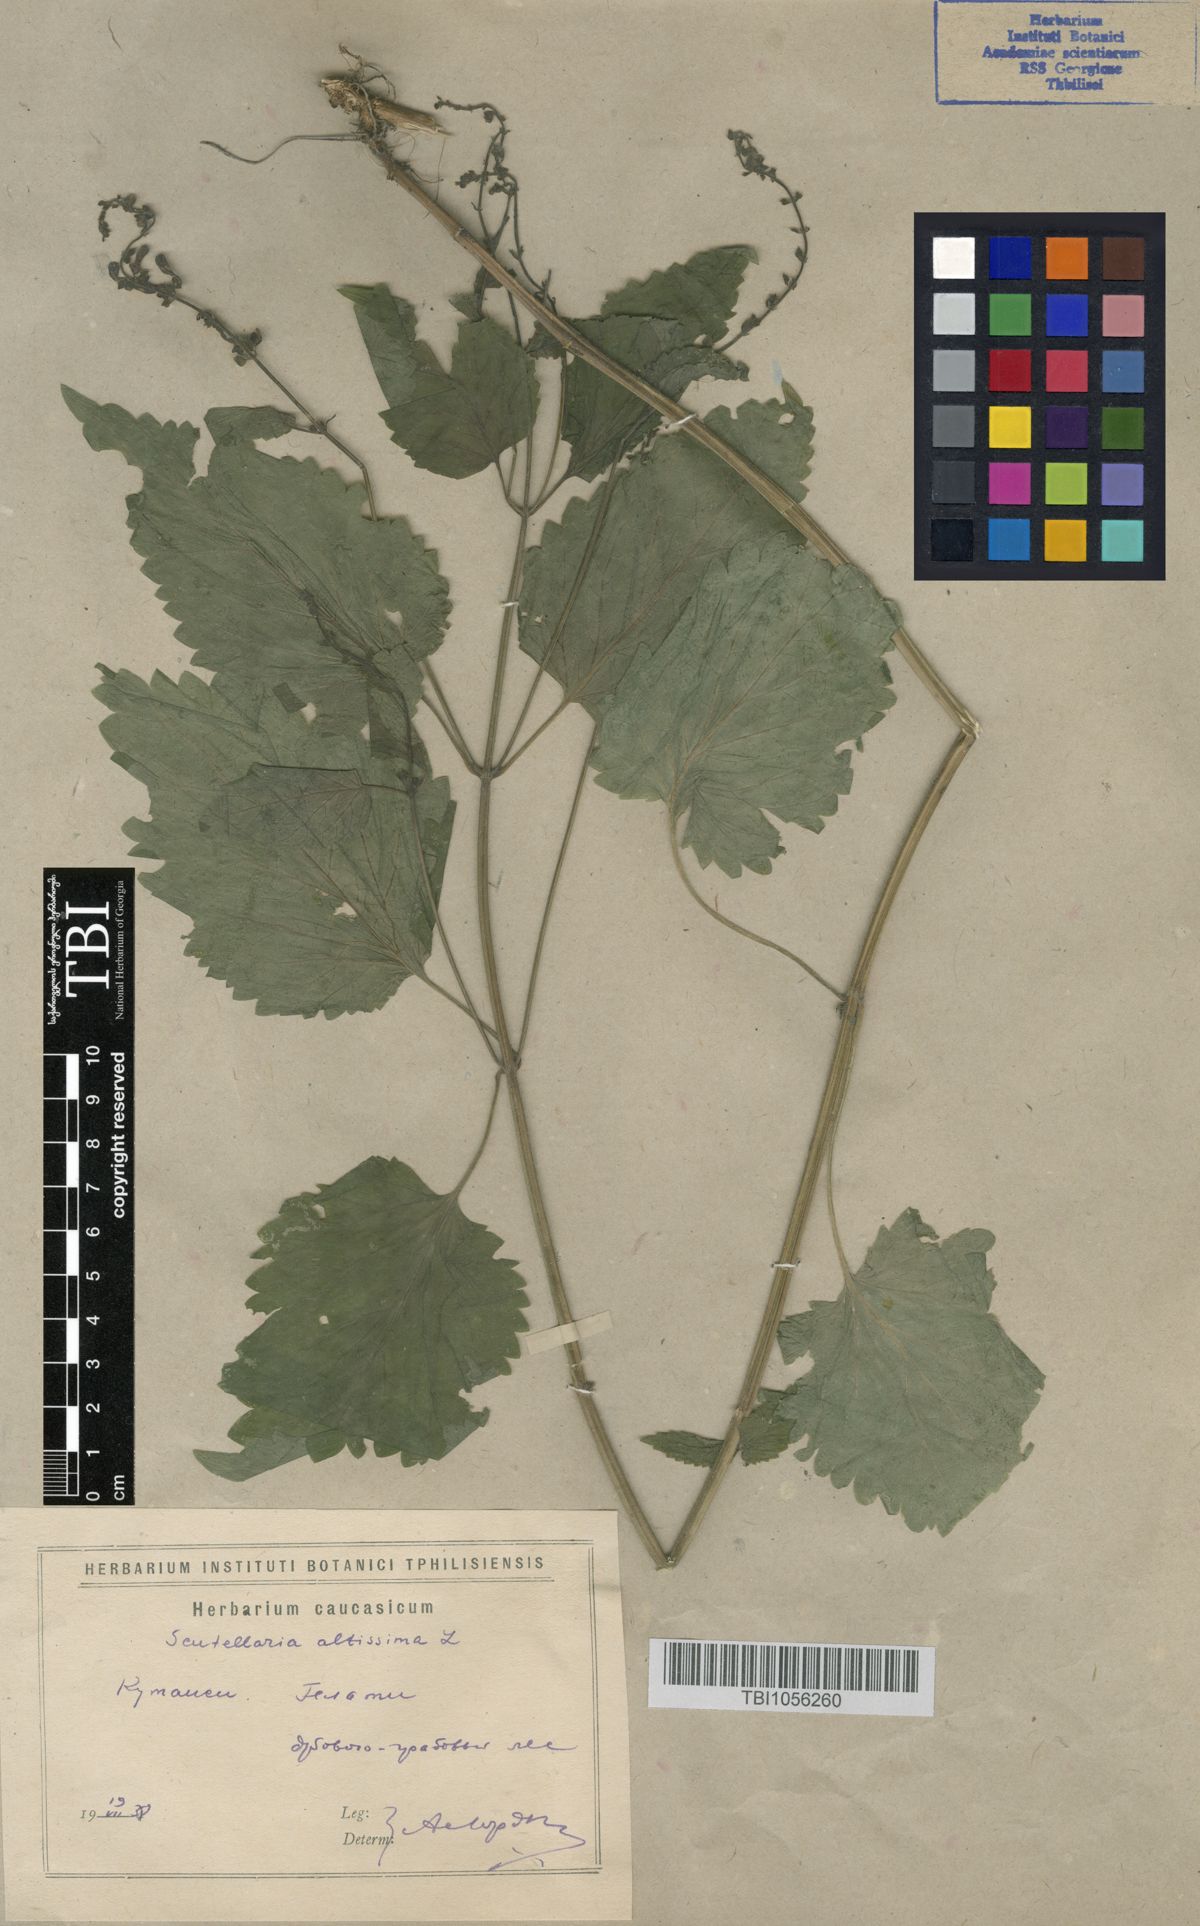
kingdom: Plantae
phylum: Tracheophyta
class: Magnoliopsida
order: Lamiales
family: Lamiaceae
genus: Scutellaria
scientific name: Scutellaria altissima
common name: Somerset skullcap
